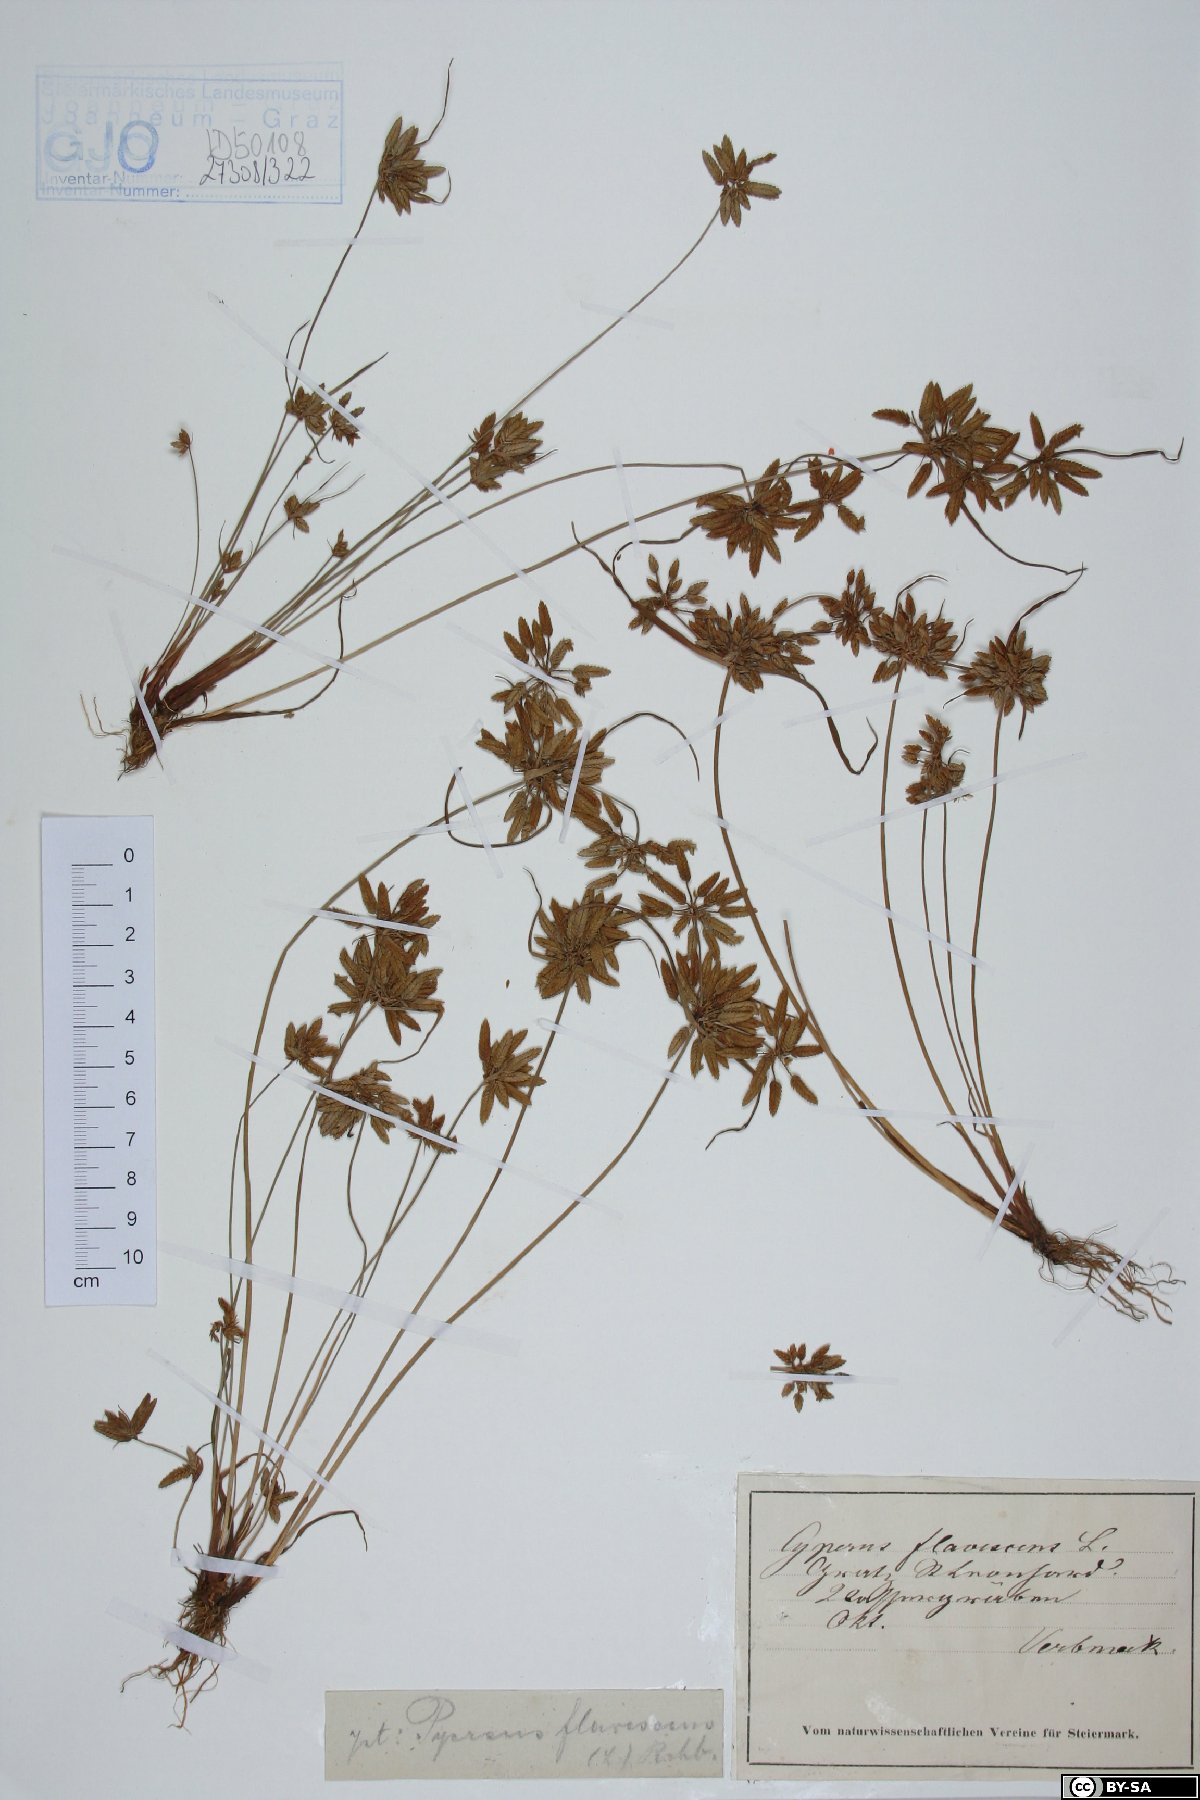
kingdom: Plantae
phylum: Tracheophyta
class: Liliopsida
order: Poales
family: Cyperaceae
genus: Cyperus
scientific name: Cyperus flavescens
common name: Yellow galingale
